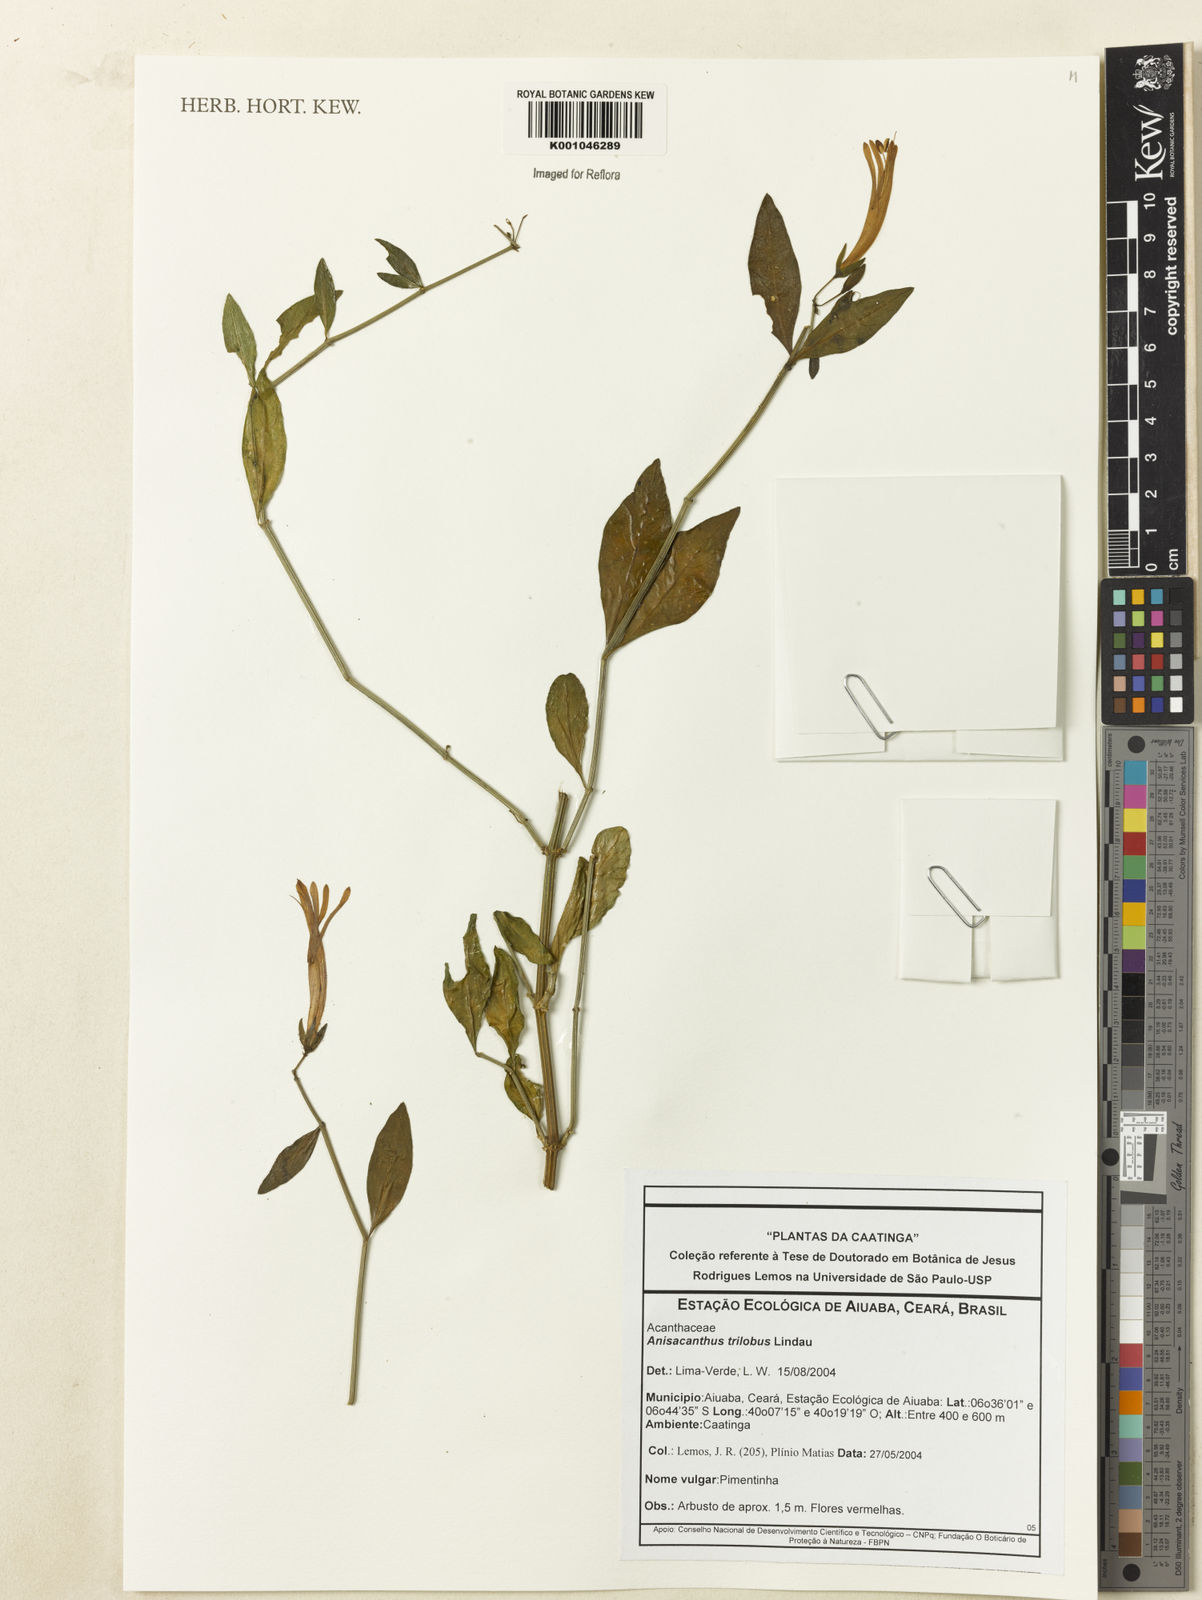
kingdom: Plantae
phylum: Tracheophyta
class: Magnoliopsida
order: Lamiales
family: Acanthaceae
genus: Justicia
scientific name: Justicia triloba
